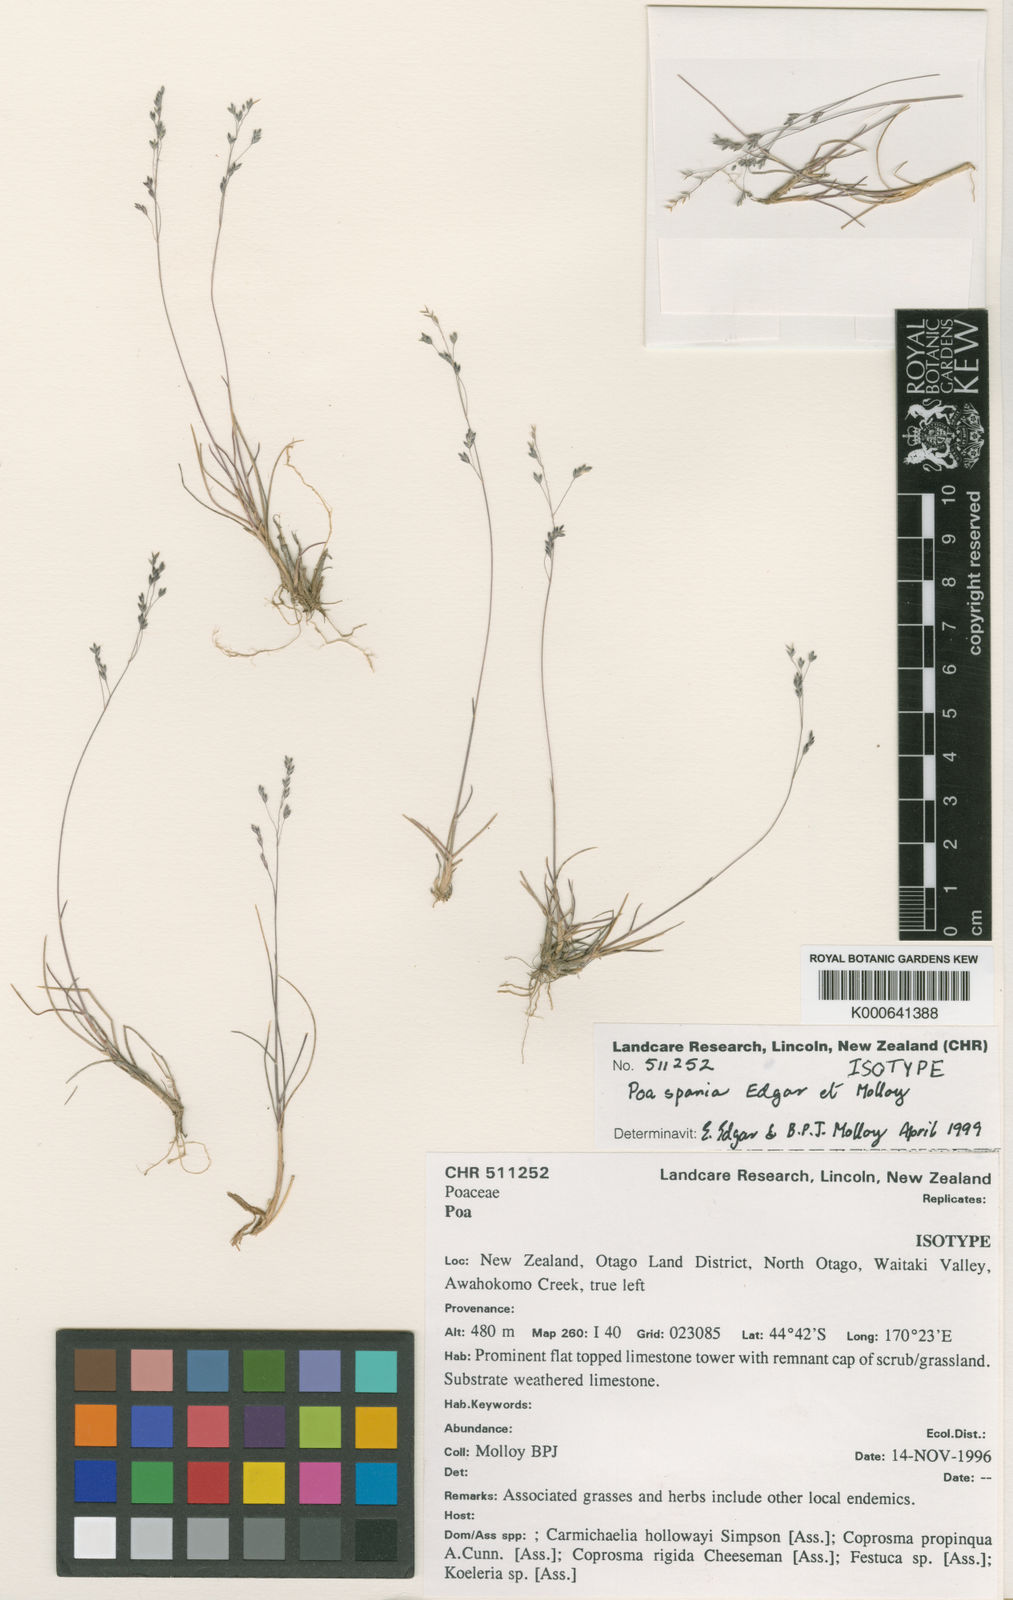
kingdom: Plantae
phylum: Tracheophyta
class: Liliopsida
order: Poales
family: Poaceae
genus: Poa
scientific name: Poa spania
